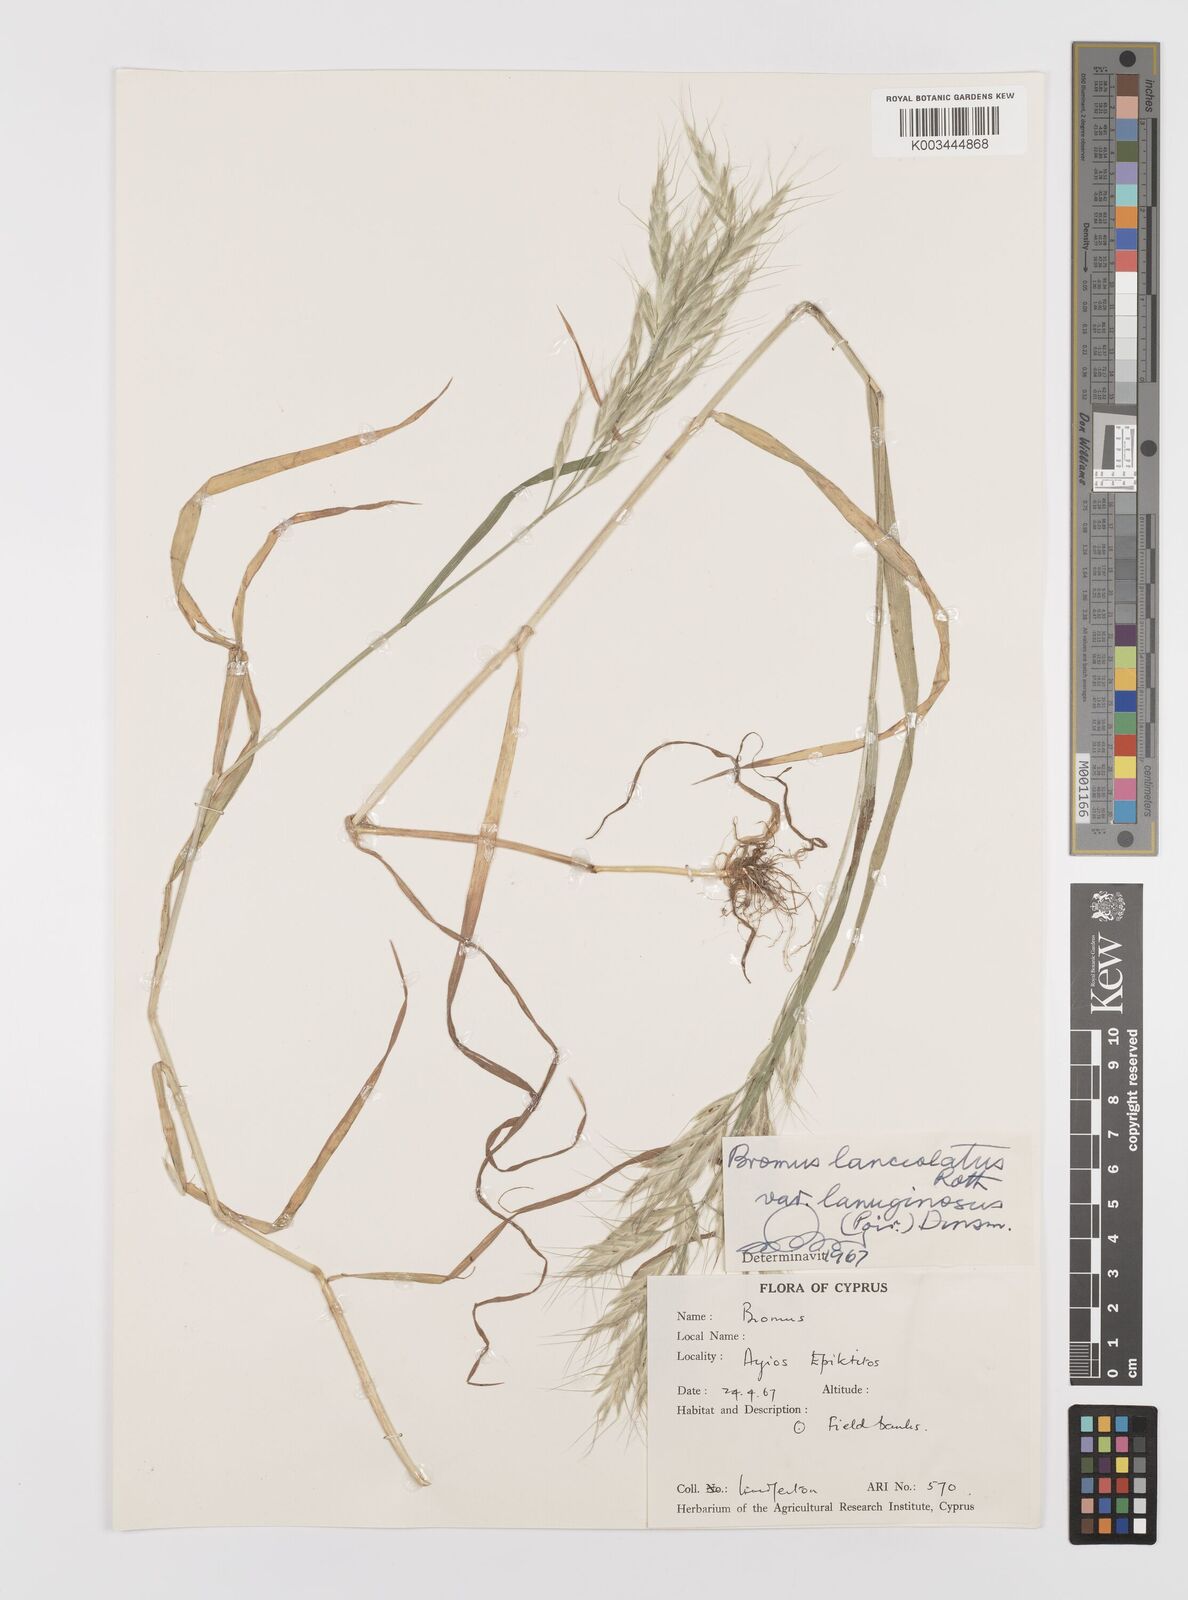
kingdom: Plantae
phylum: Tracheophyta
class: Liliopsida
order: Poales
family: Poaceae
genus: Bromus
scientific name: Bromus lanceolatus
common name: Mediterranean brome
